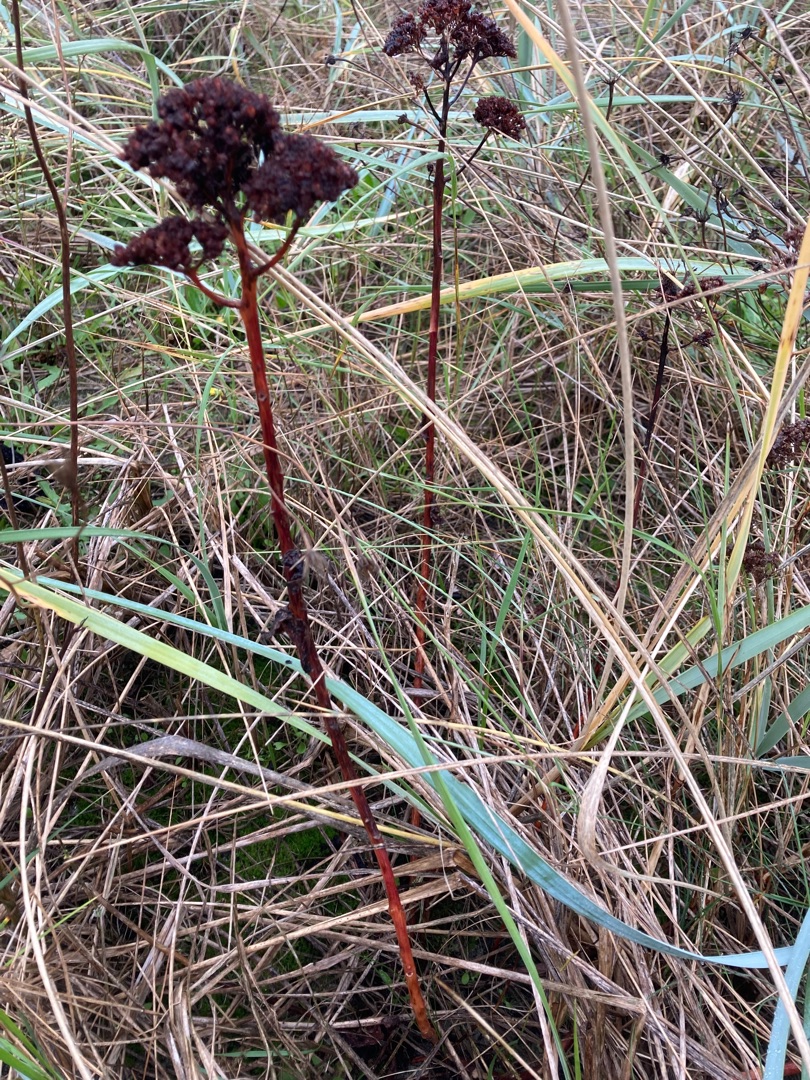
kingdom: Plantae
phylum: Tracheophyta
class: Magnoliopsida
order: Saxifragales
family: Crassulaceae
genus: Hylotelephium
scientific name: Hylotelephium telephium
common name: Sankthansurt
